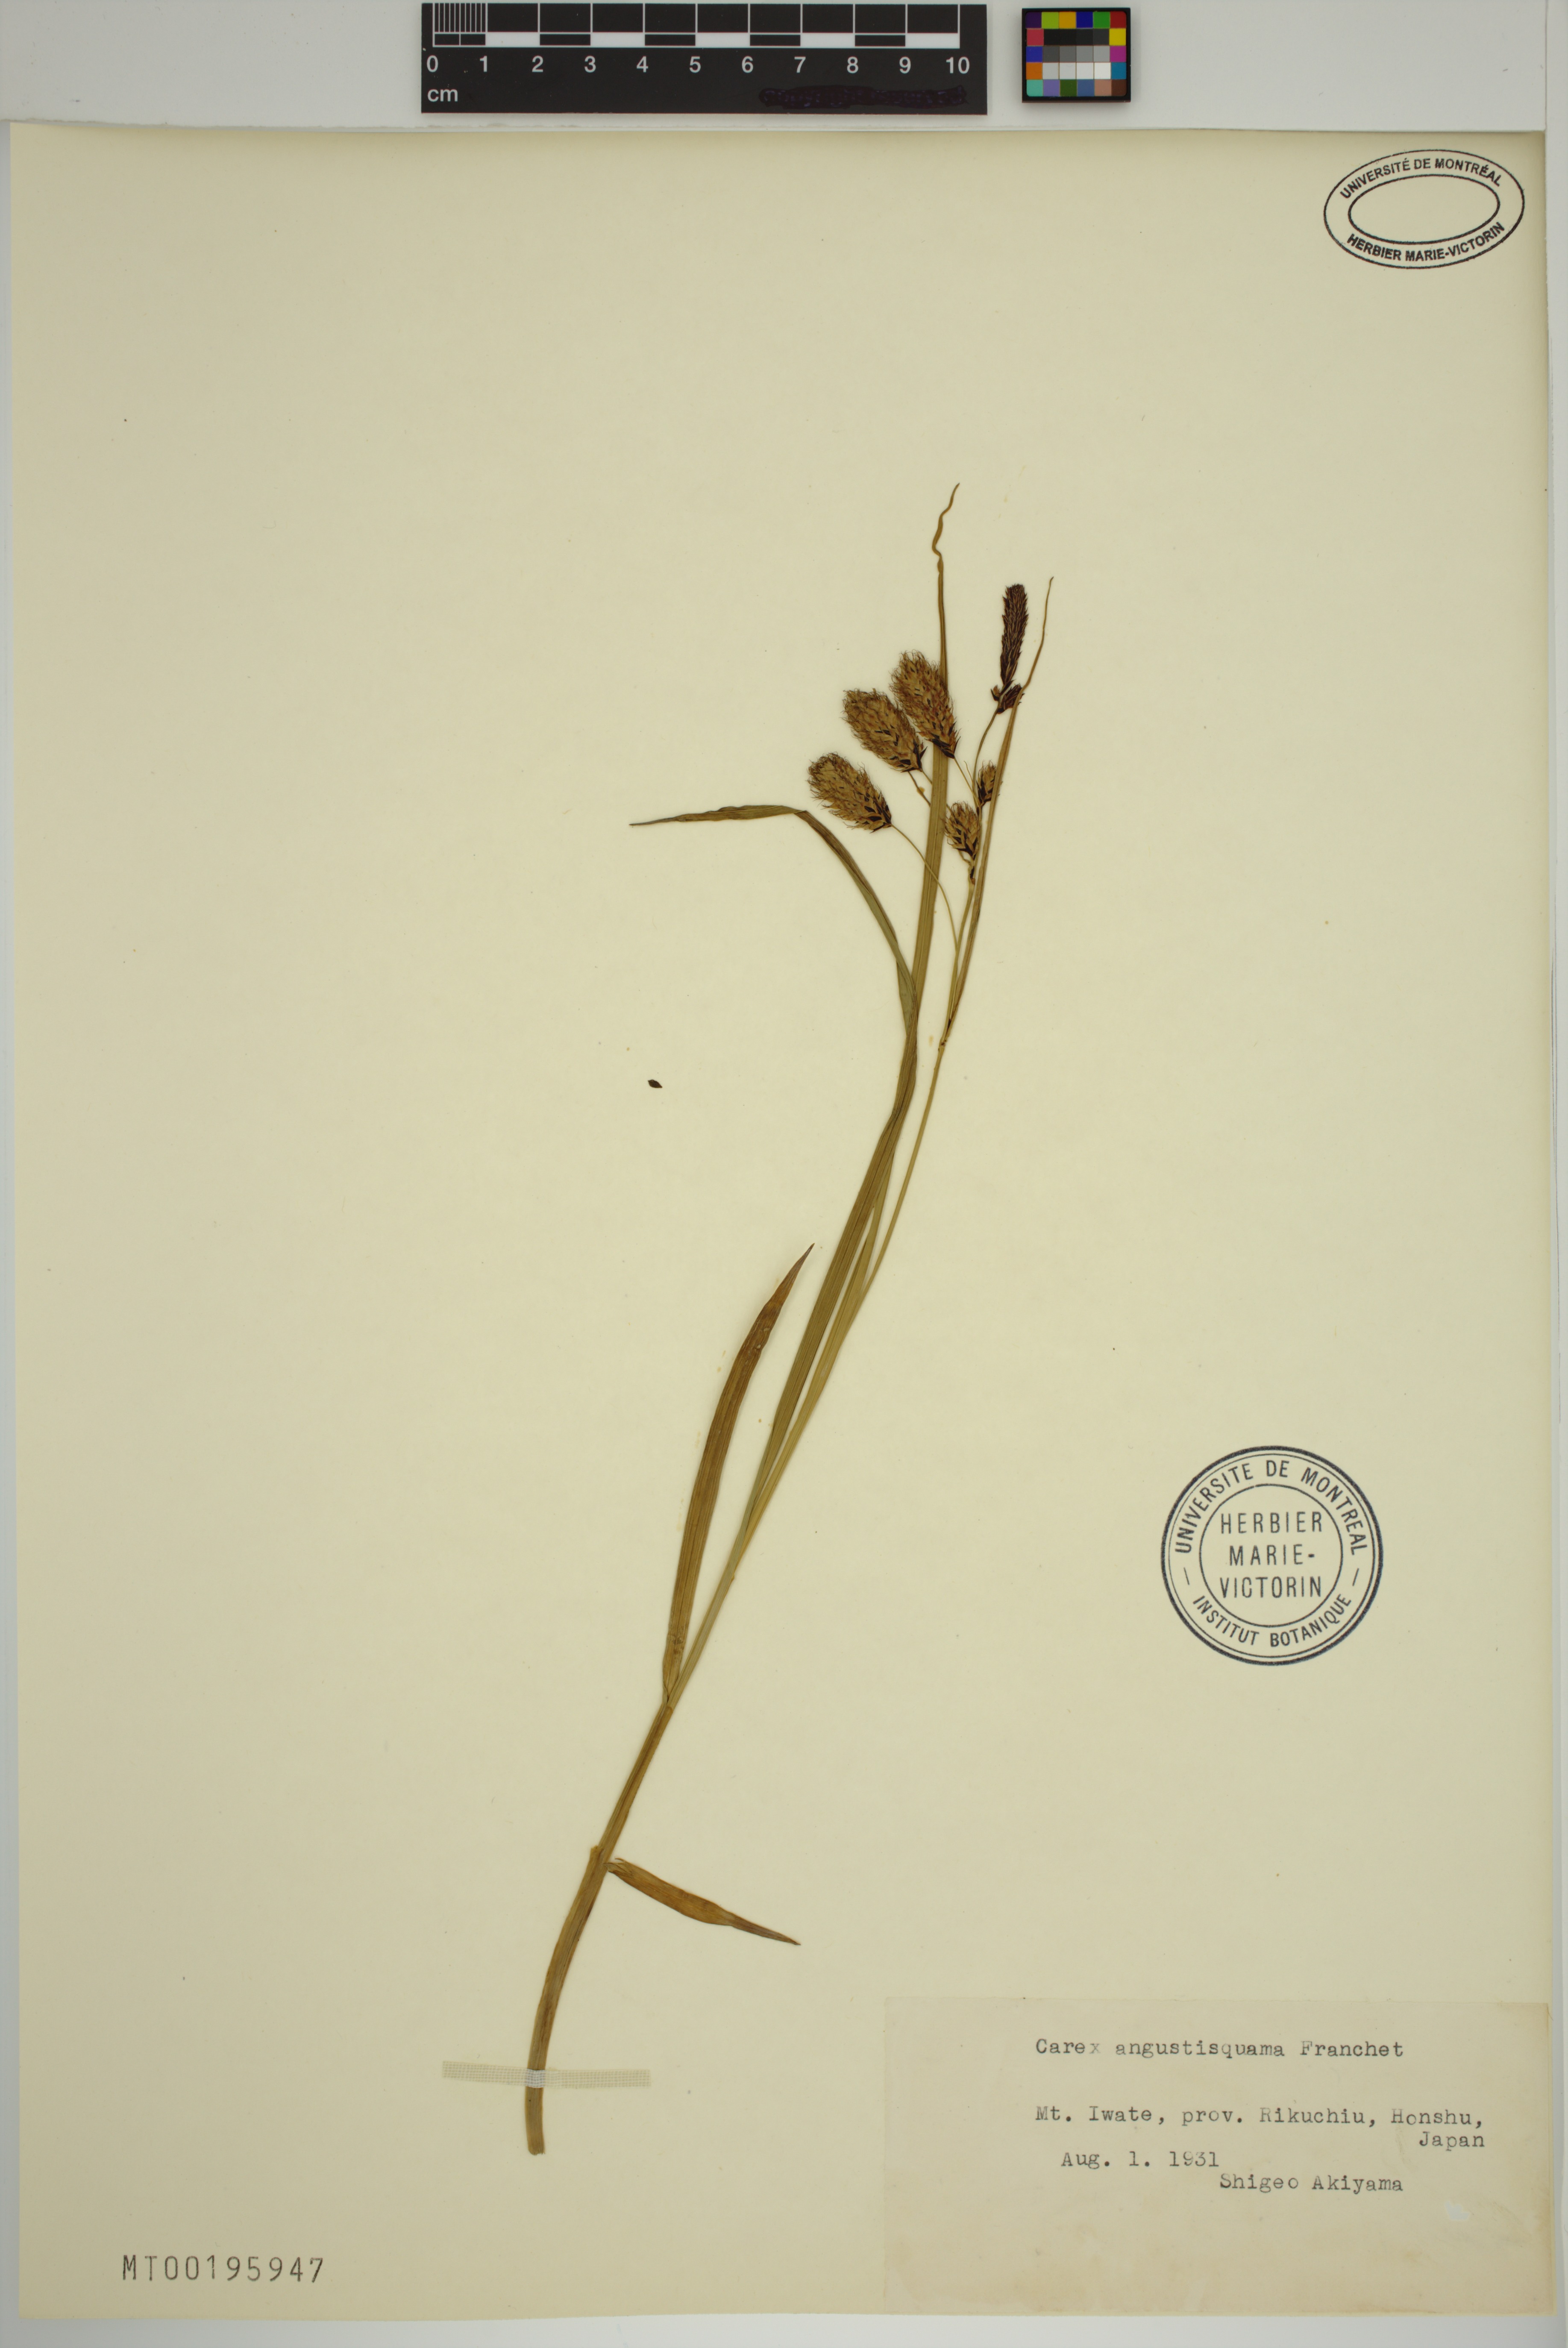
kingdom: Plantae
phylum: Tracheophyta
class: Liliopsida
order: Poales
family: Cyperaceae
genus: Carex
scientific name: Carex angustisquama
